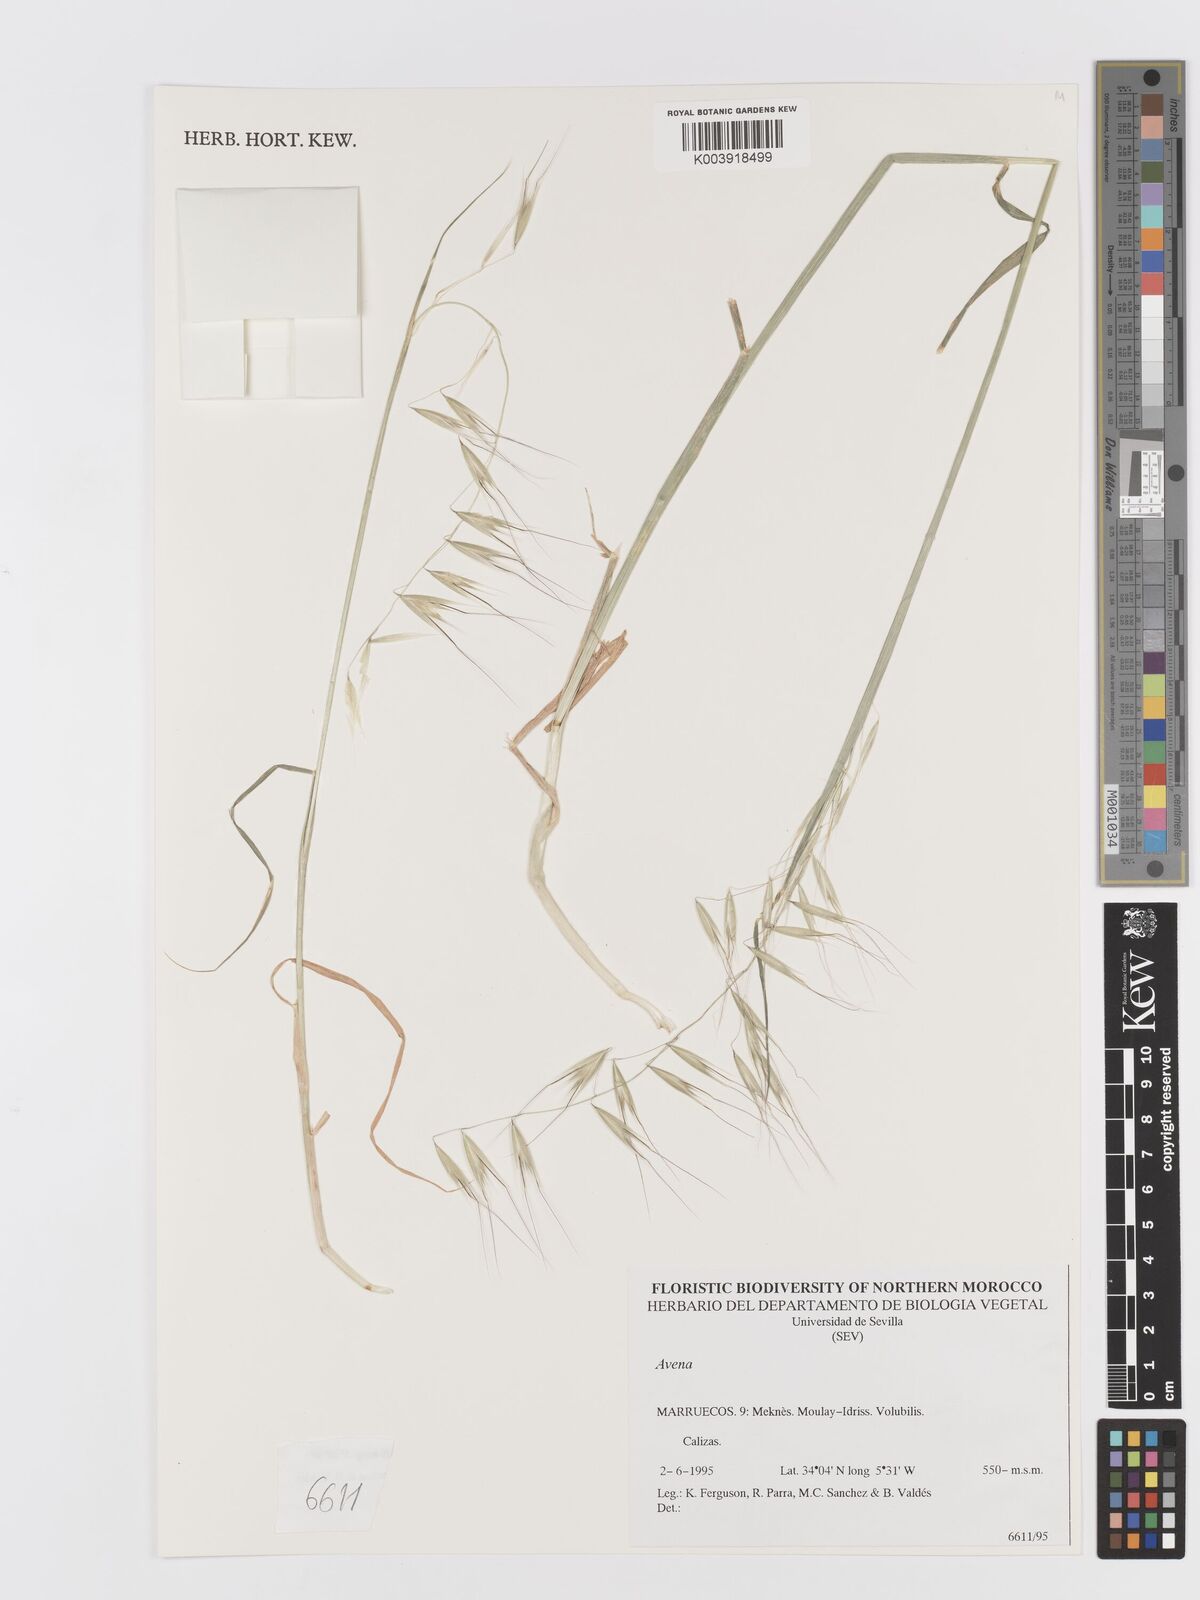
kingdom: Plantae
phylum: Tracheophyta
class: Liliopsida
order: Poales
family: Poaceae
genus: Avena
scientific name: Avena
